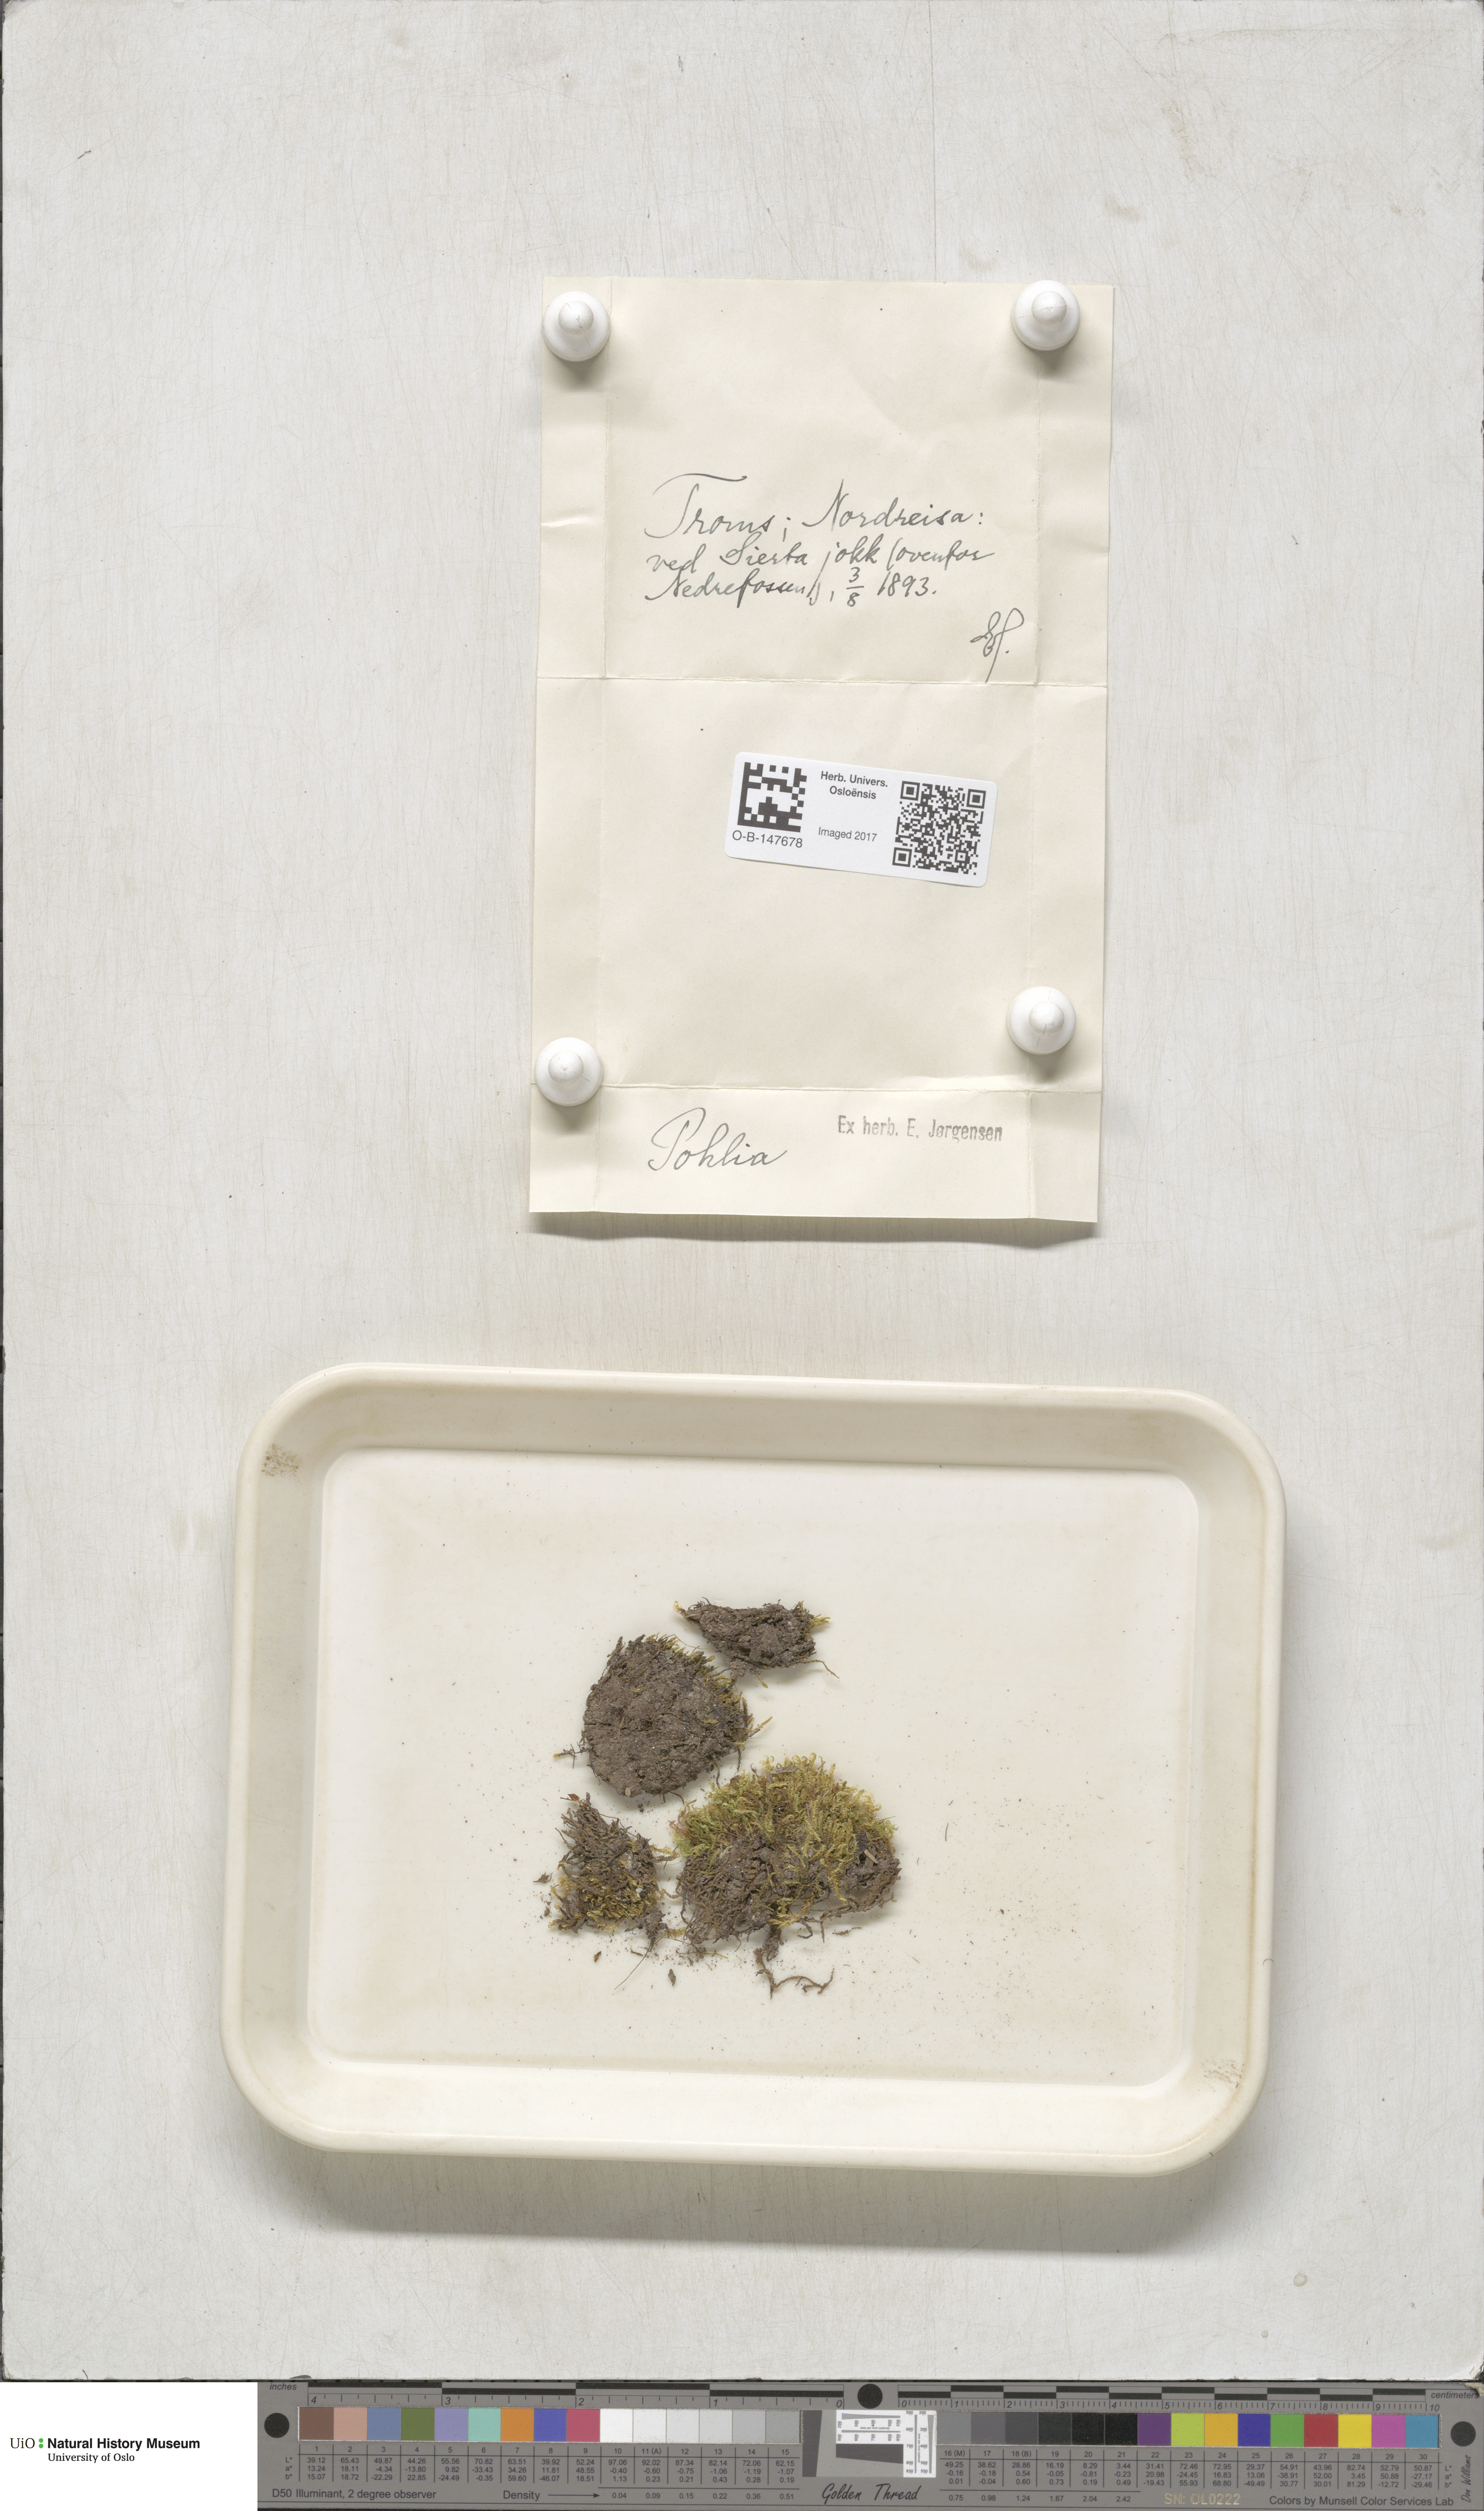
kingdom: Plantae
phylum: Bryophyta
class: Bryopsida
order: Bryales
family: Mniaceae
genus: Pohlia
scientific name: Pohlia
